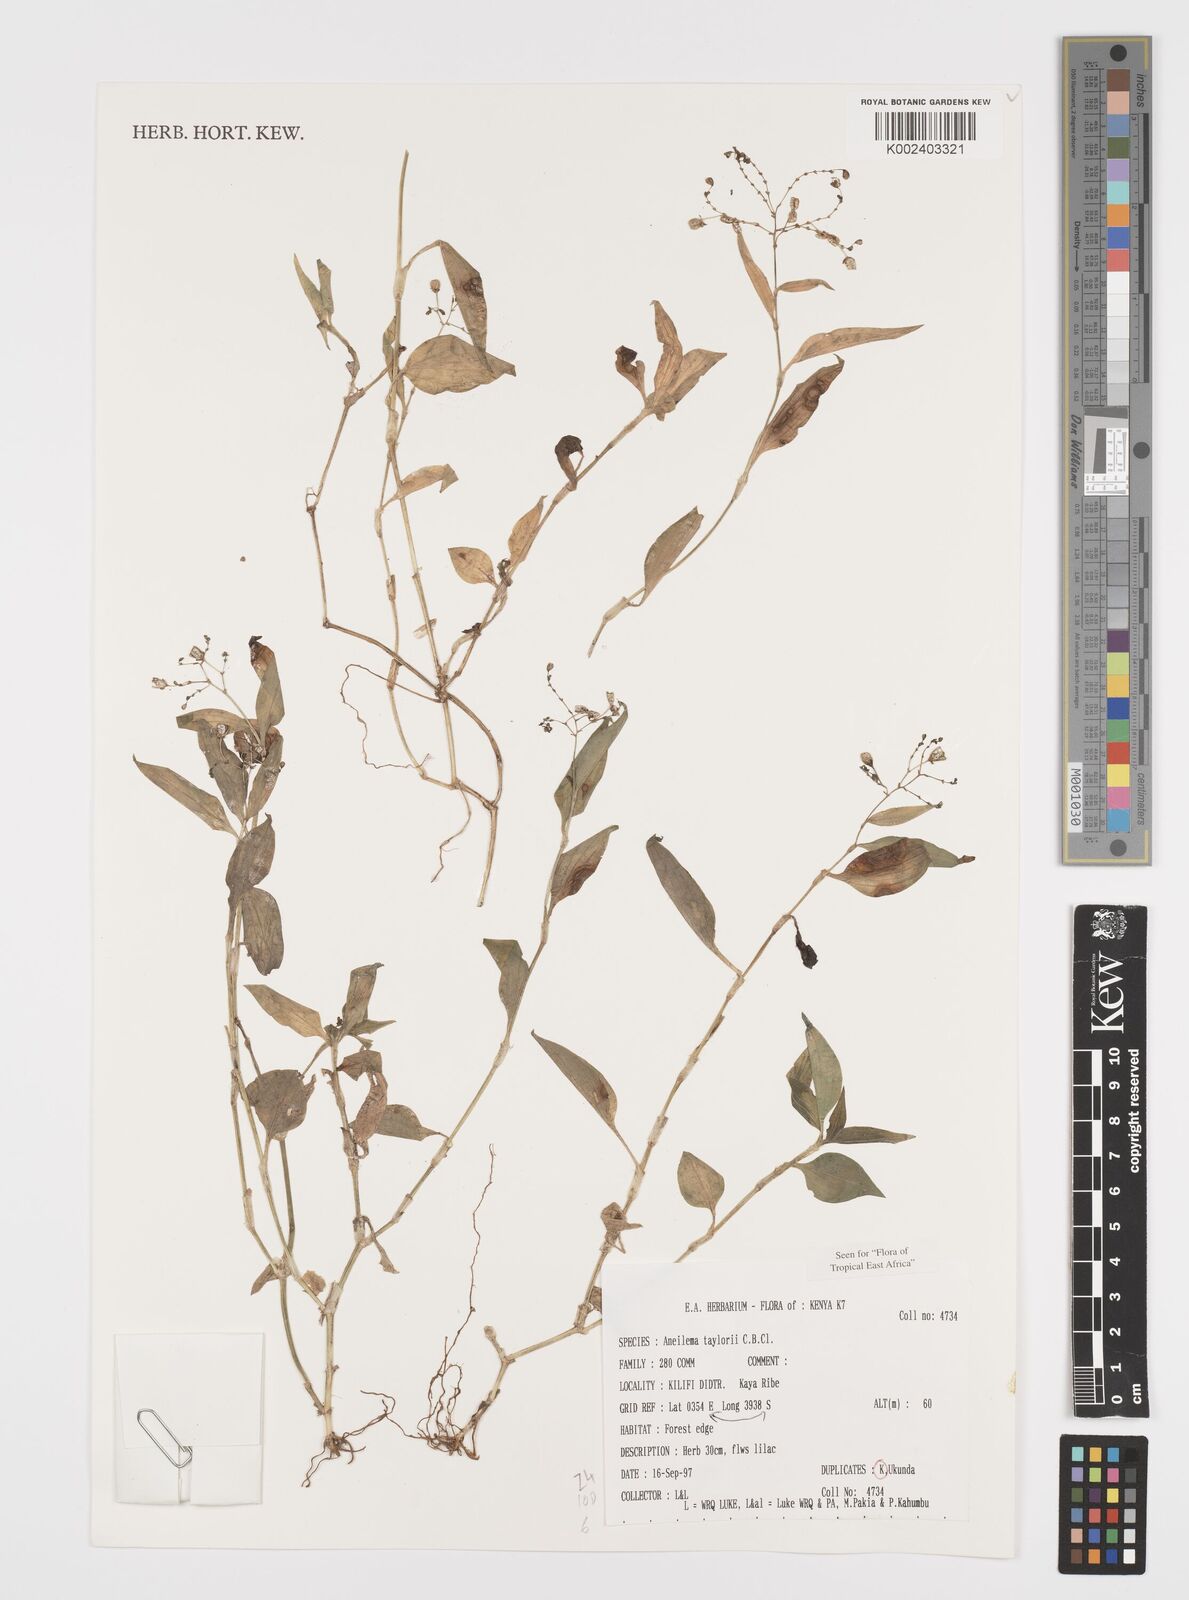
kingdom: Plantae
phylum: Tracheophyta
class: Liliopsida
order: Commelinales
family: Commelinaceae
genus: Aneilema
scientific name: Aneilema taylorii
